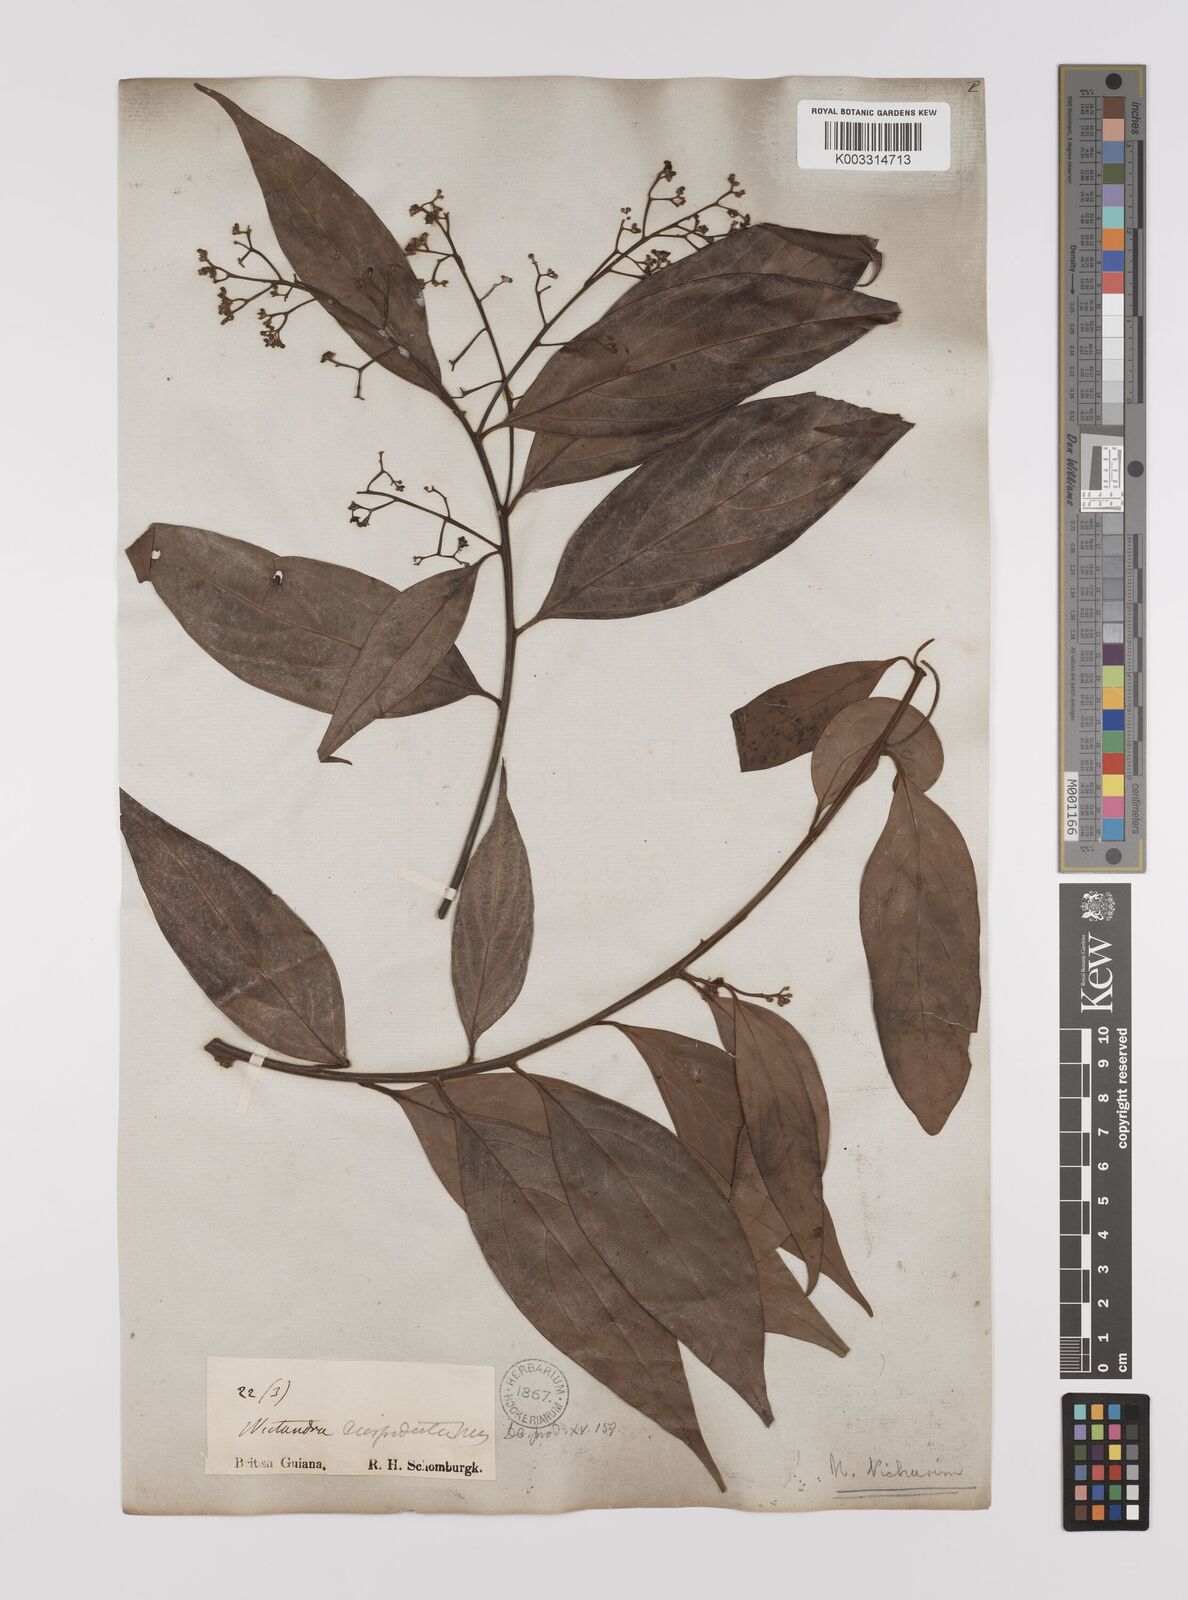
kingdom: Plantae
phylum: Tracheophyta
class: Magnoliopsida
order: Laurales
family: Lauraceae
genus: Nectandra
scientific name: Nectandra cuspidata
